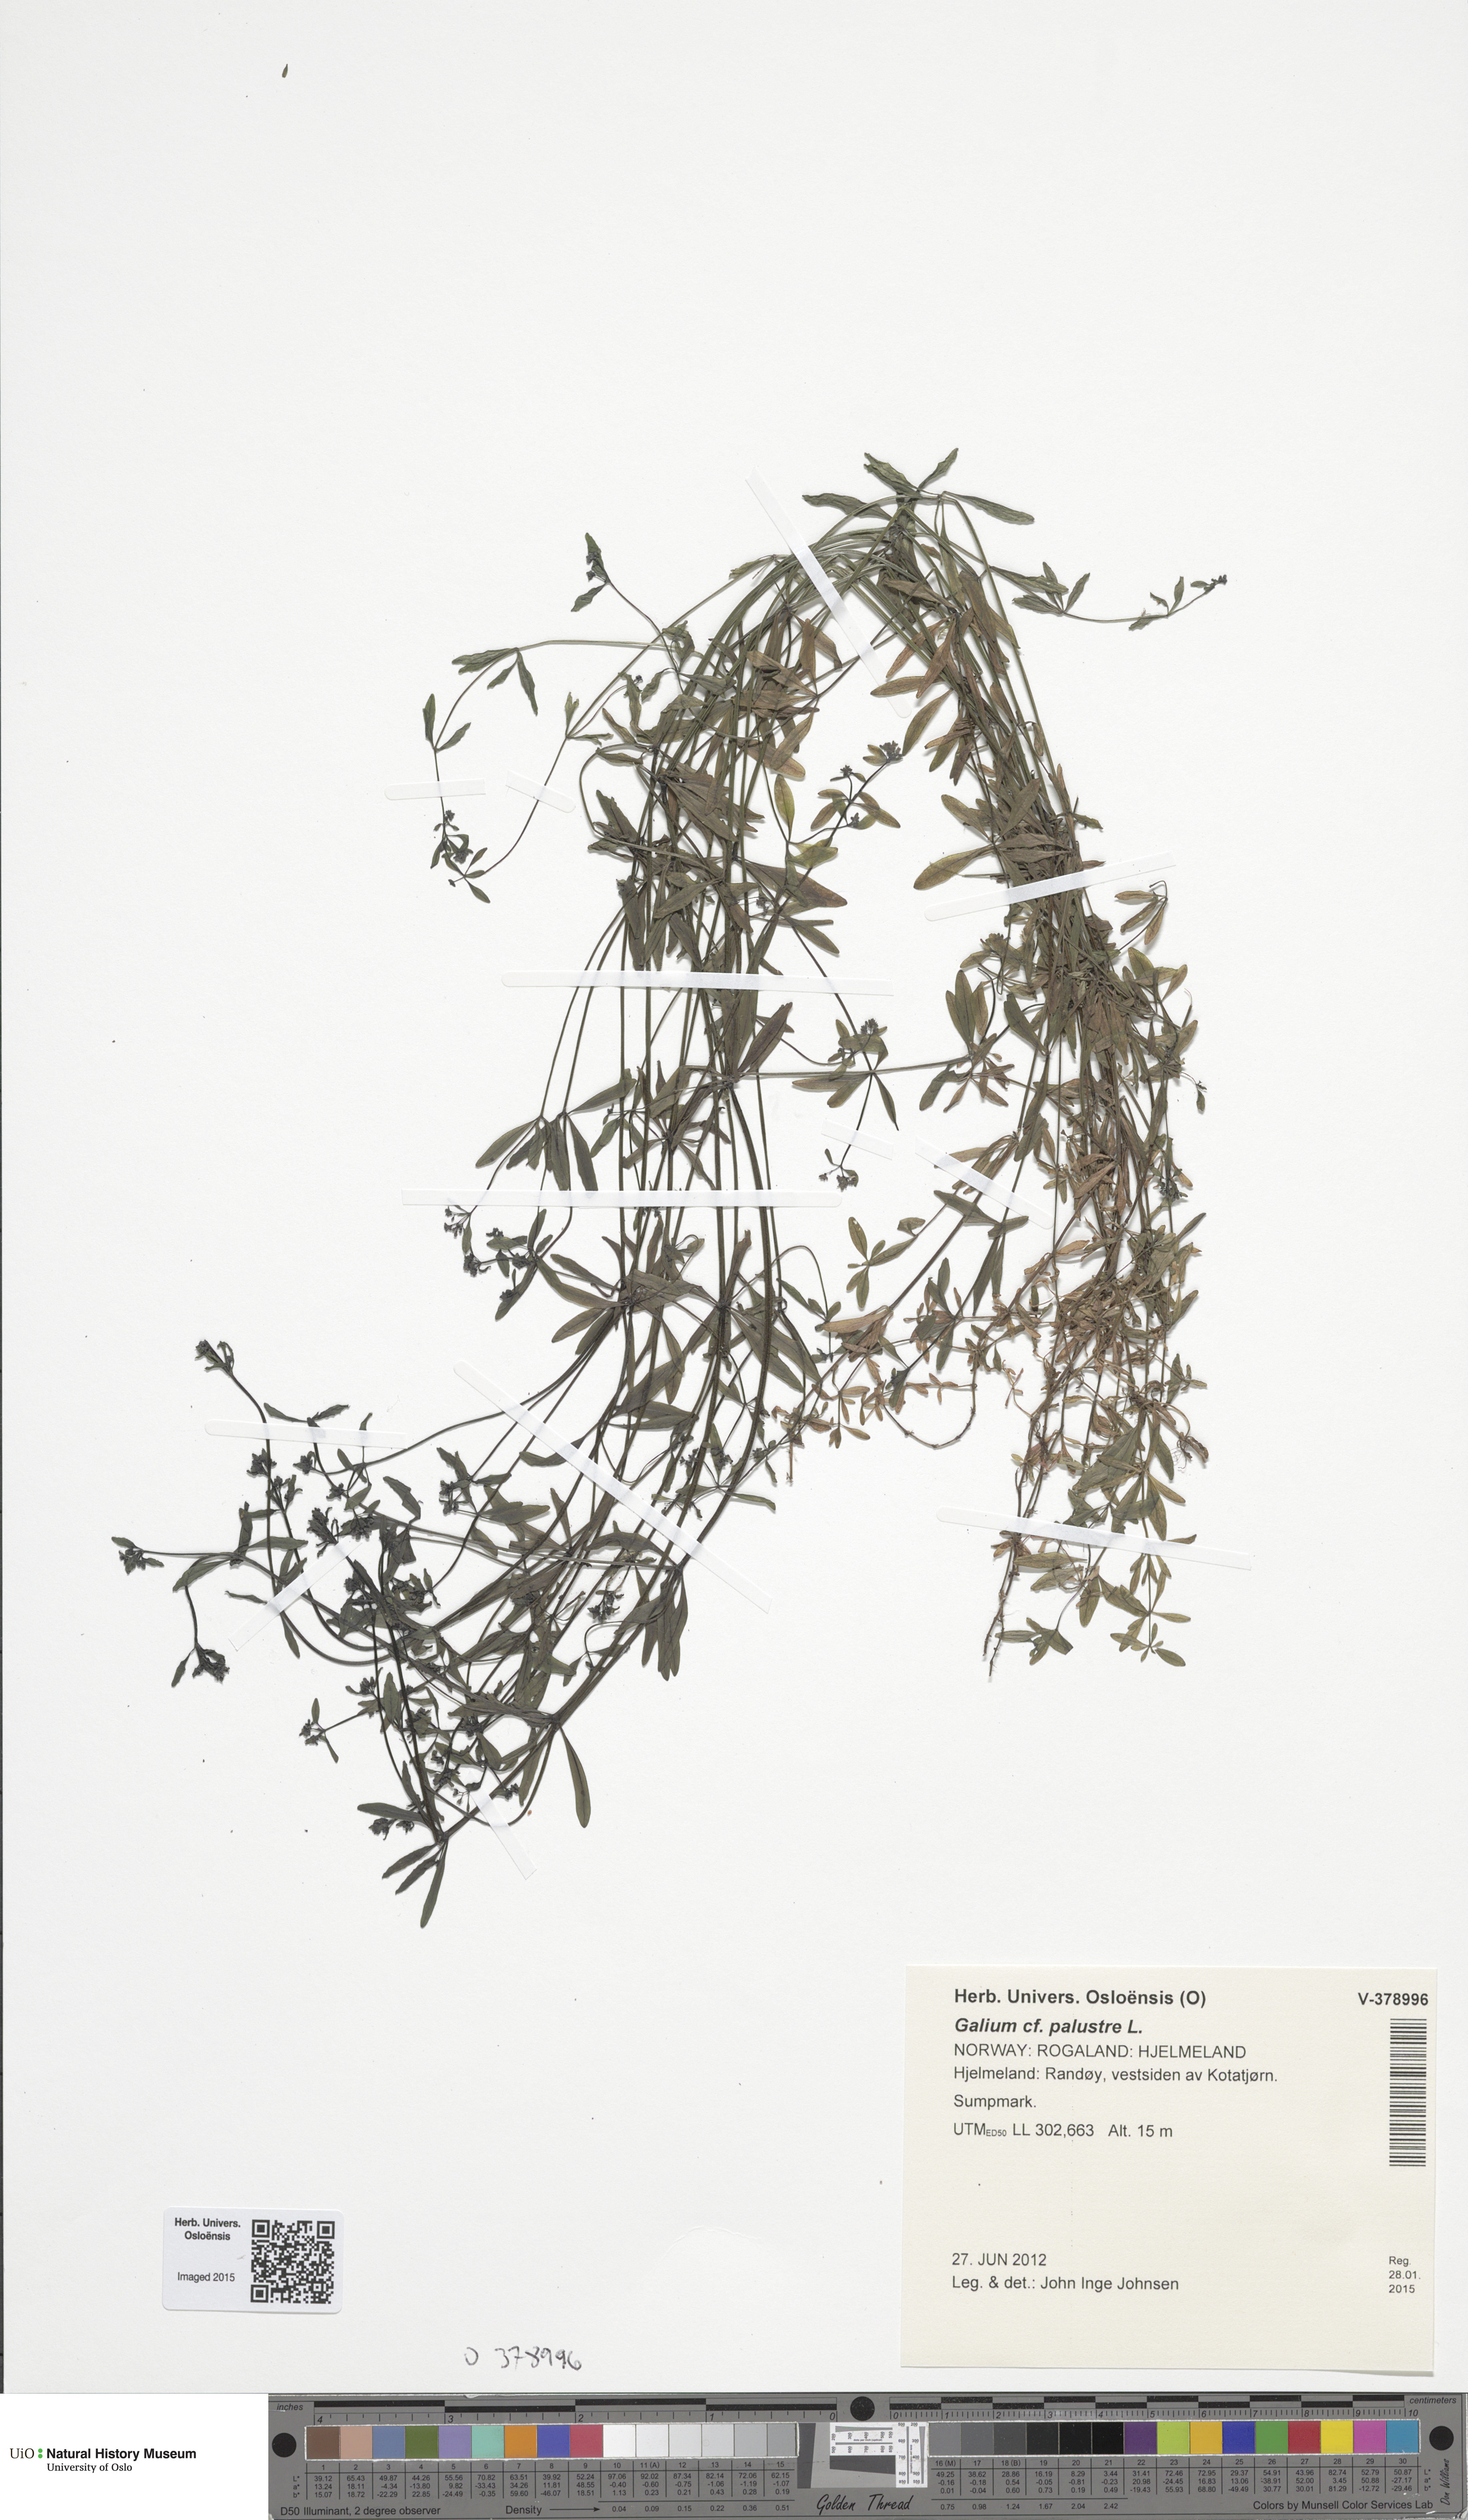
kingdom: Plantae
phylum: Tracheophyta
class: Magnoliopsida
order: Gentianales
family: Rubiaceae
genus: Galium
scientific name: Galium palustre
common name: Common marsh-bedstraw
